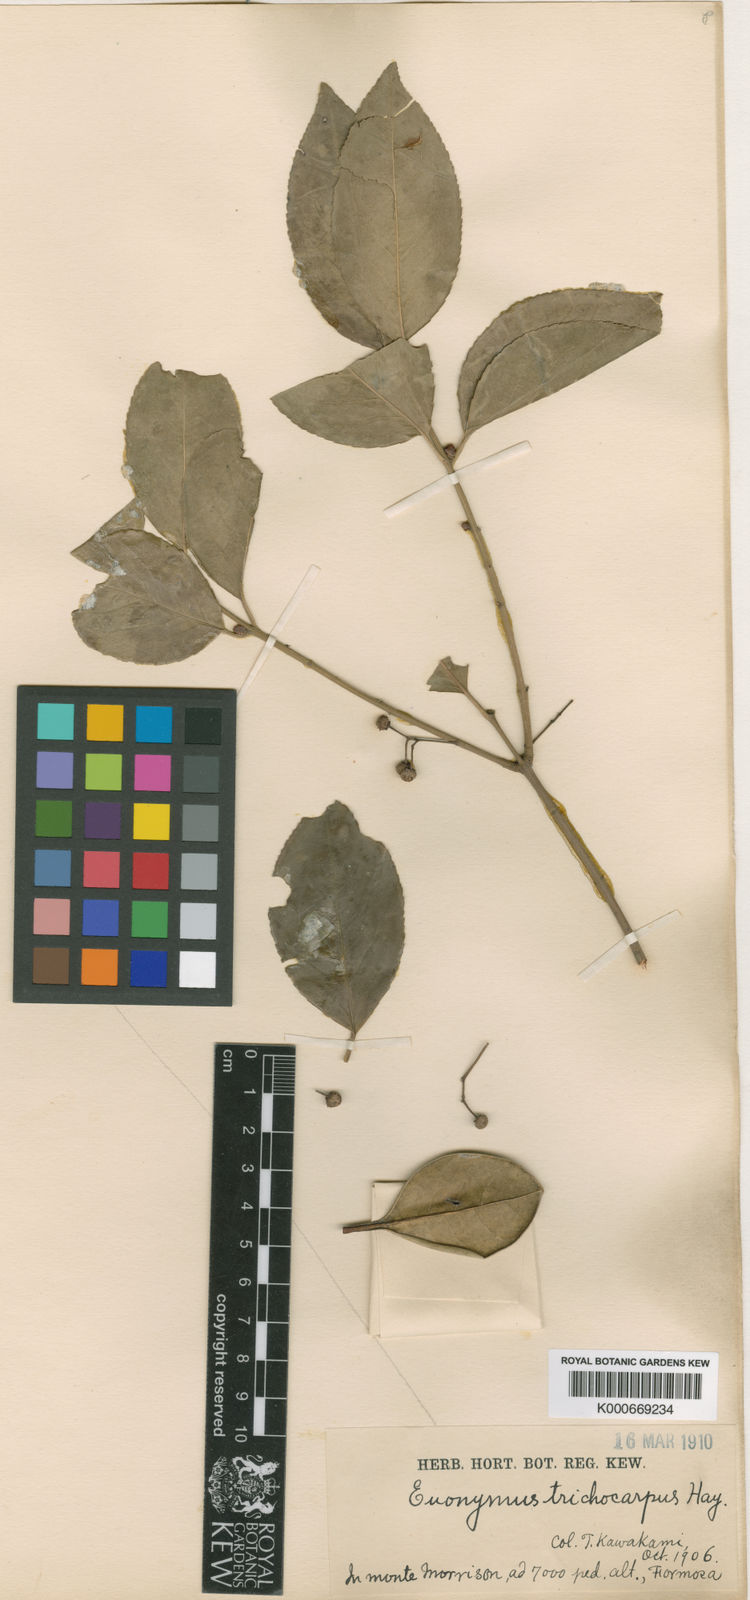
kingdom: Plantae
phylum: Tracheophyta
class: Magnoliopsida
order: Celastrales
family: Celastraceae
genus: Euonymus
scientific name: Euonymus echinatus
